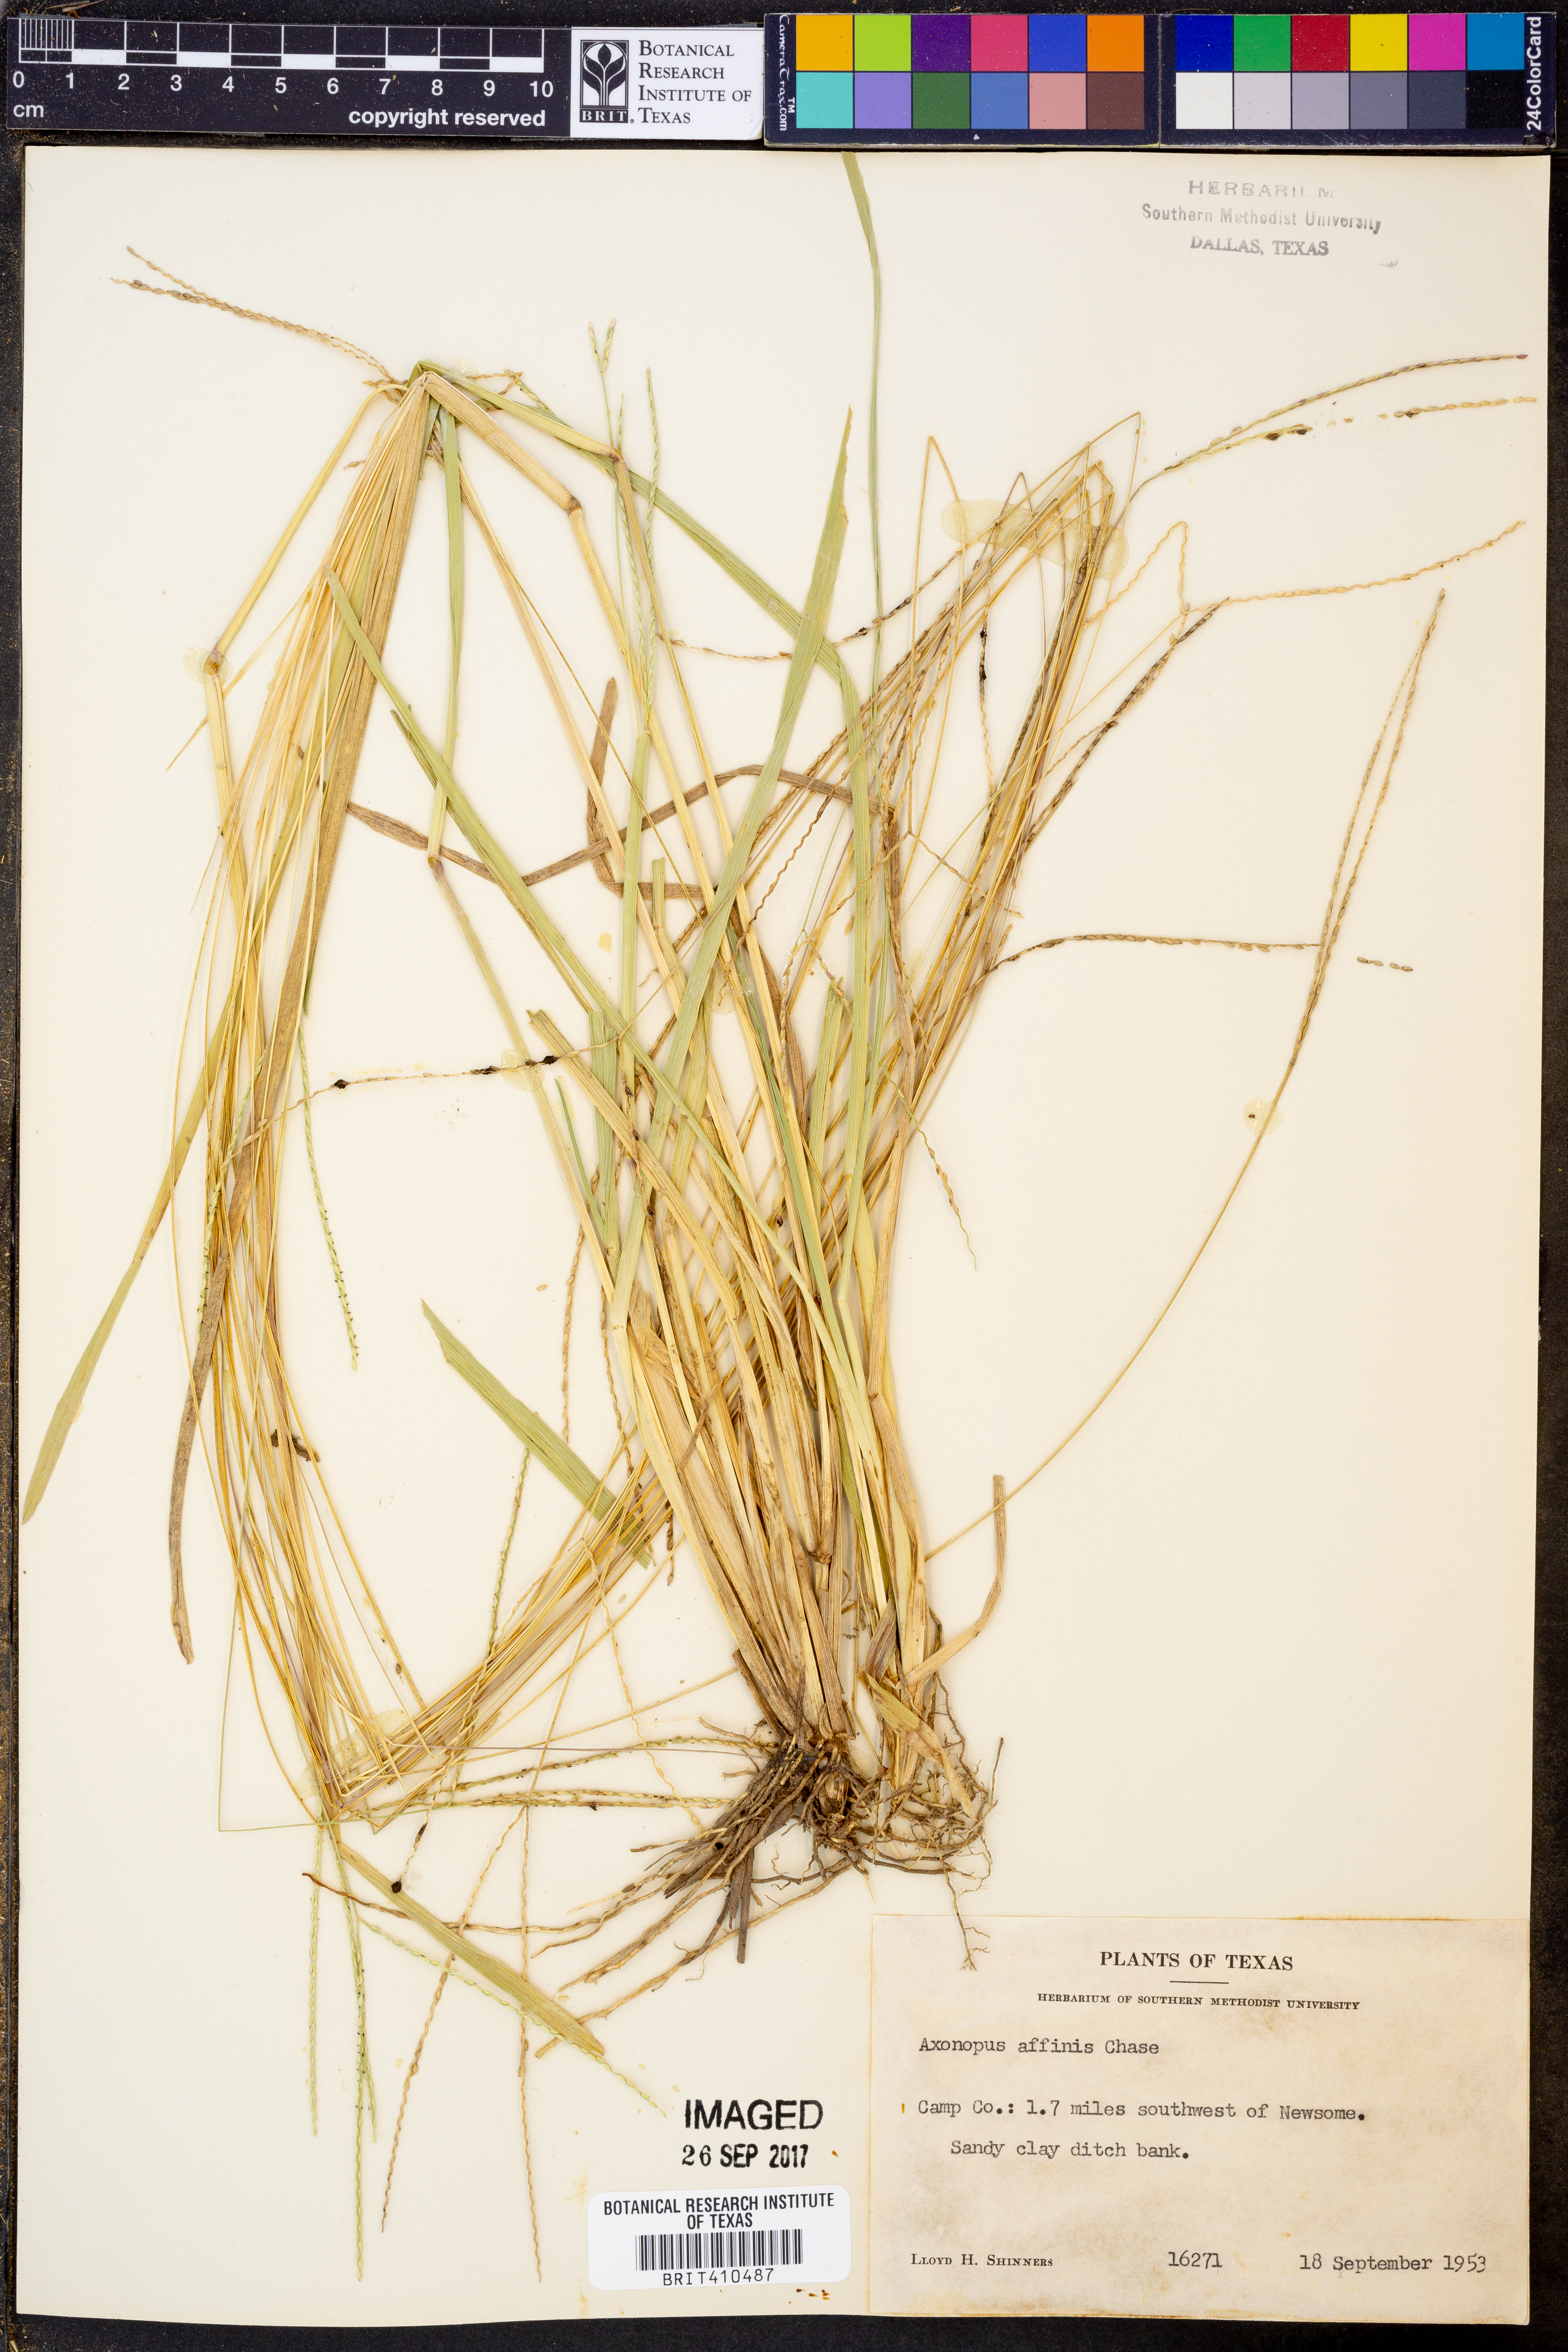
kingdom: Plantae
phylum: Tracheophyta
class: Liliopsida
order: Poales
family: Poaceae
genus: Axonopus
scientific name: Axonopus fissifolius
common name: Common carpetgrass
